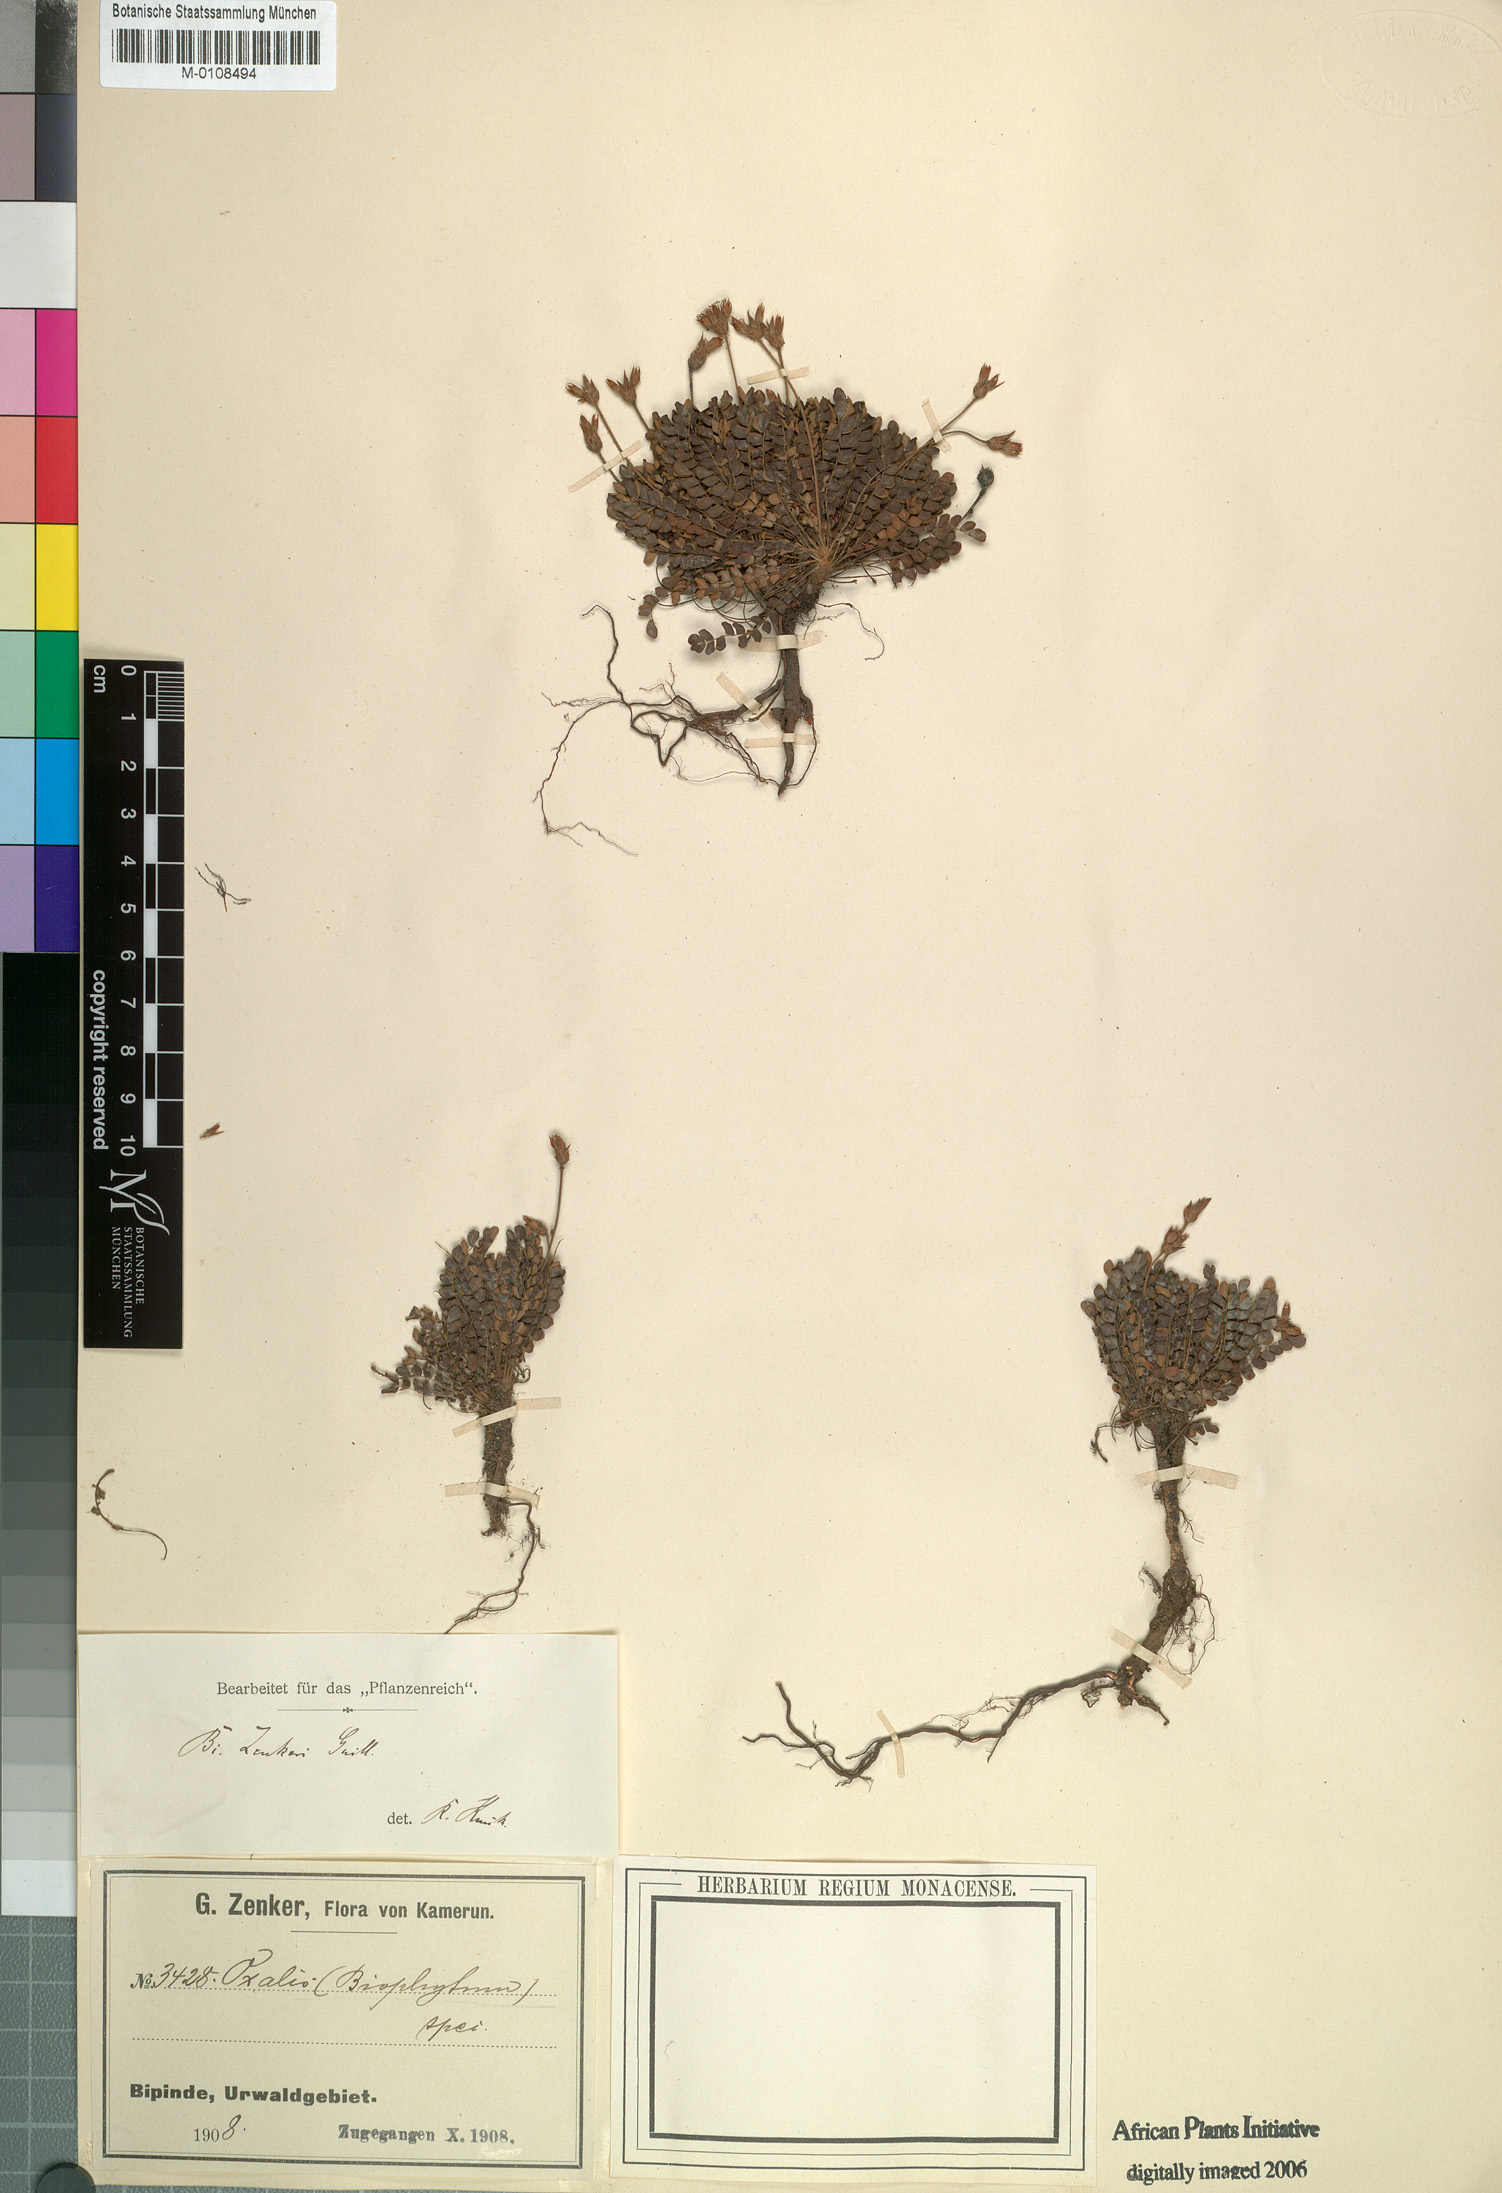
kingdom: Plantae
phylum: Tracheophyta
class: Magnoliopsida
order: Oxalidales
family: Oxalidaceae
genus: Biophytum
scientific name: Biophytum zenkeri
